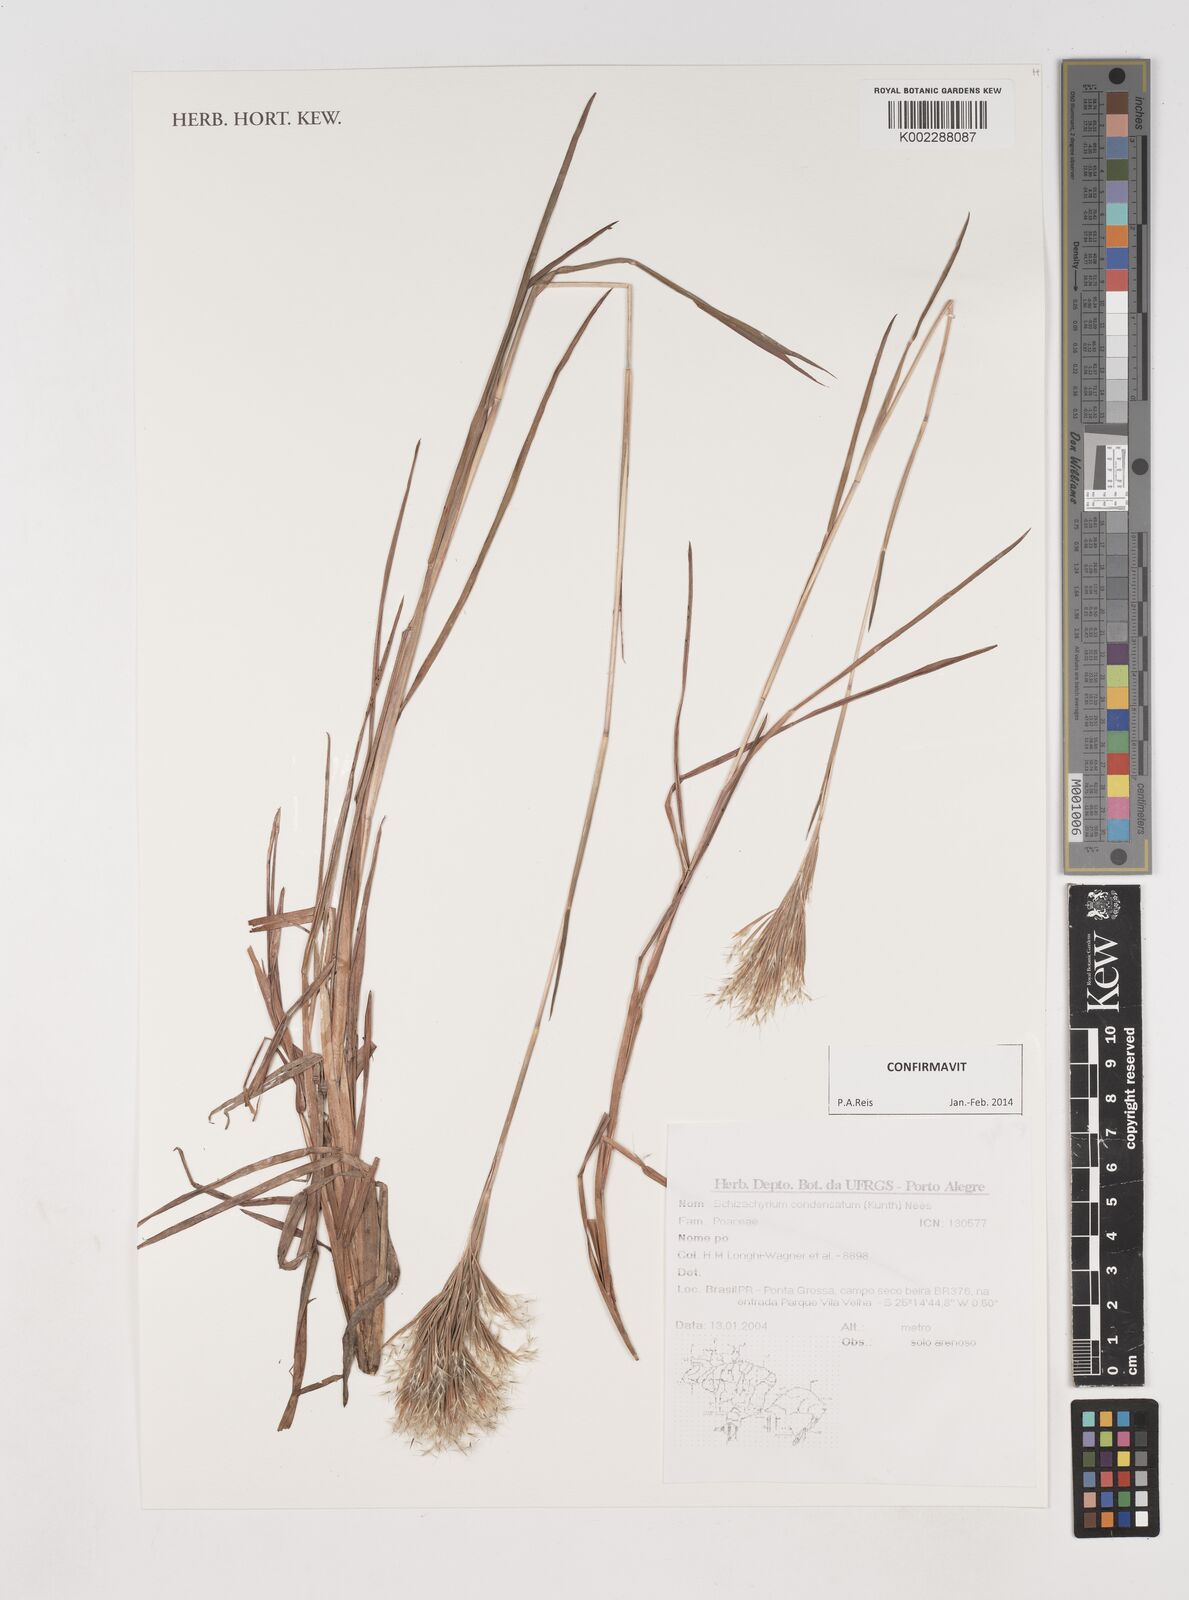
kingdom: Plantae
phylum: Tracheophyta
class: Liliopsida
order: Poales
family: Poaceae
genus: Schizachyrium
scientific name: Schizachyrium condensatum
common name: Bush beardgrass
